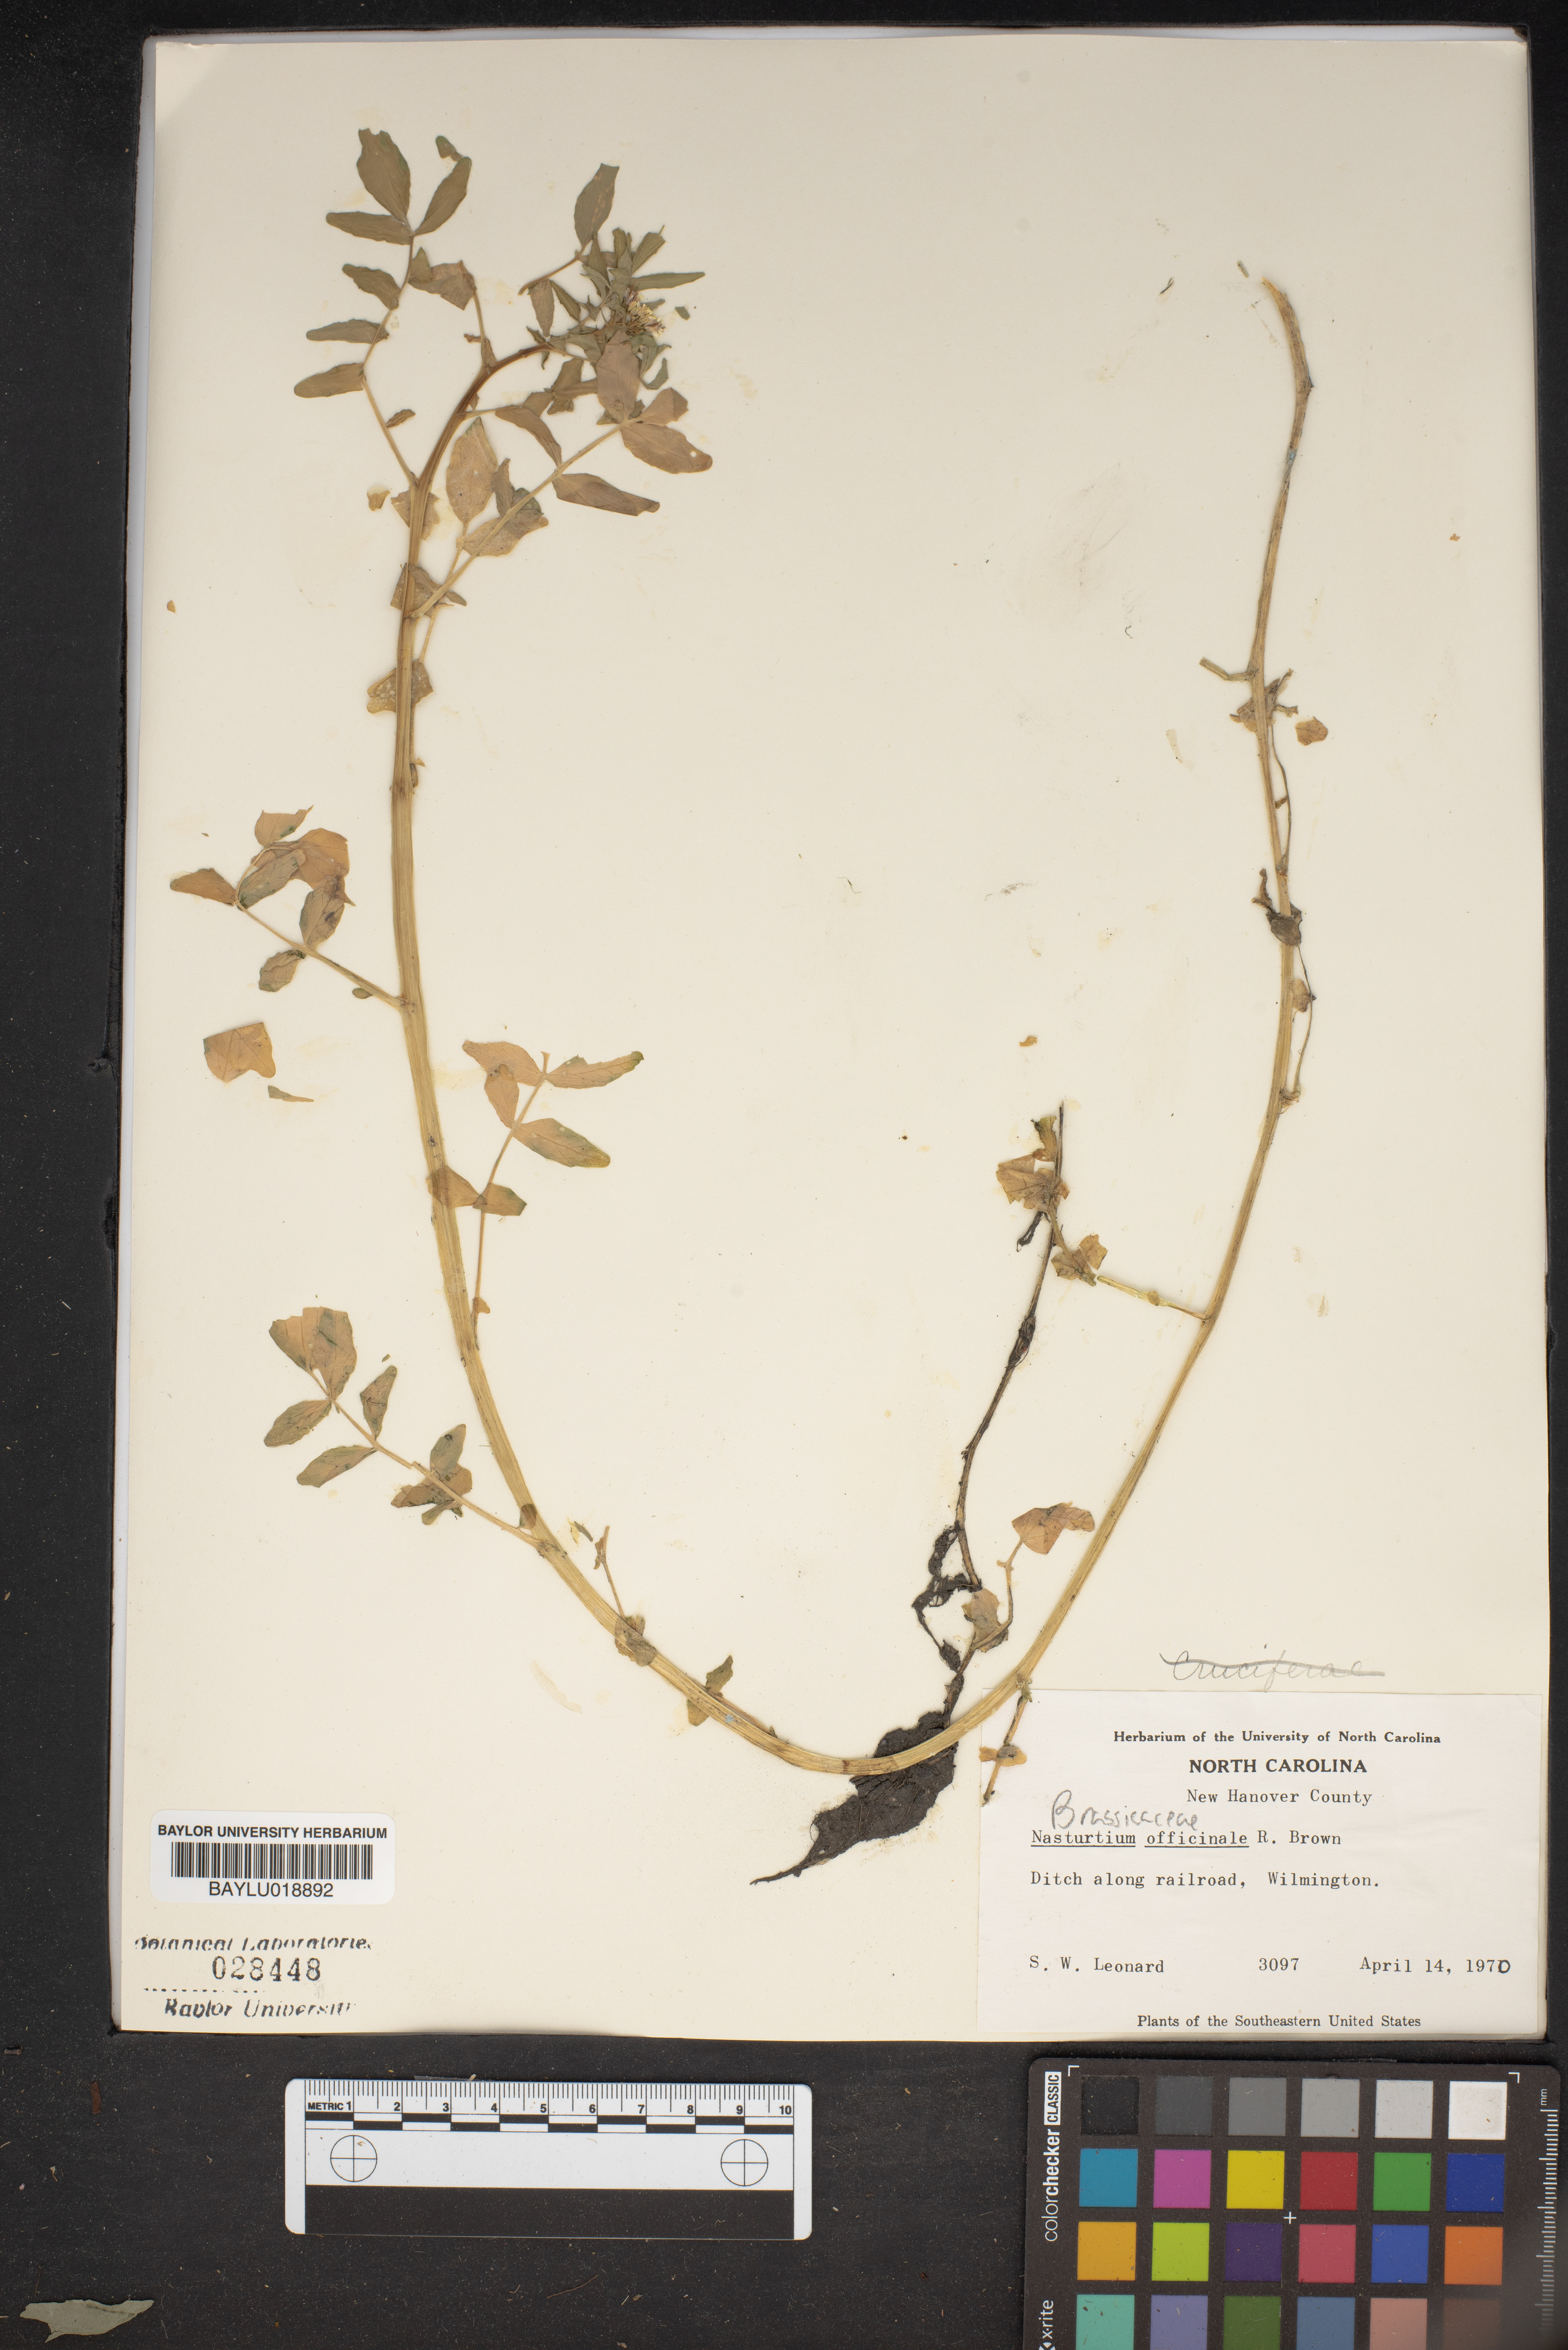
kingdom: Plantae
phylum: Tracheophyta
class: Magnoliopsida
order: Brassicales
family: Brassicaceae
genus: Nasturtium
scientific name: Nasturtium officinale
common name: Watercress
